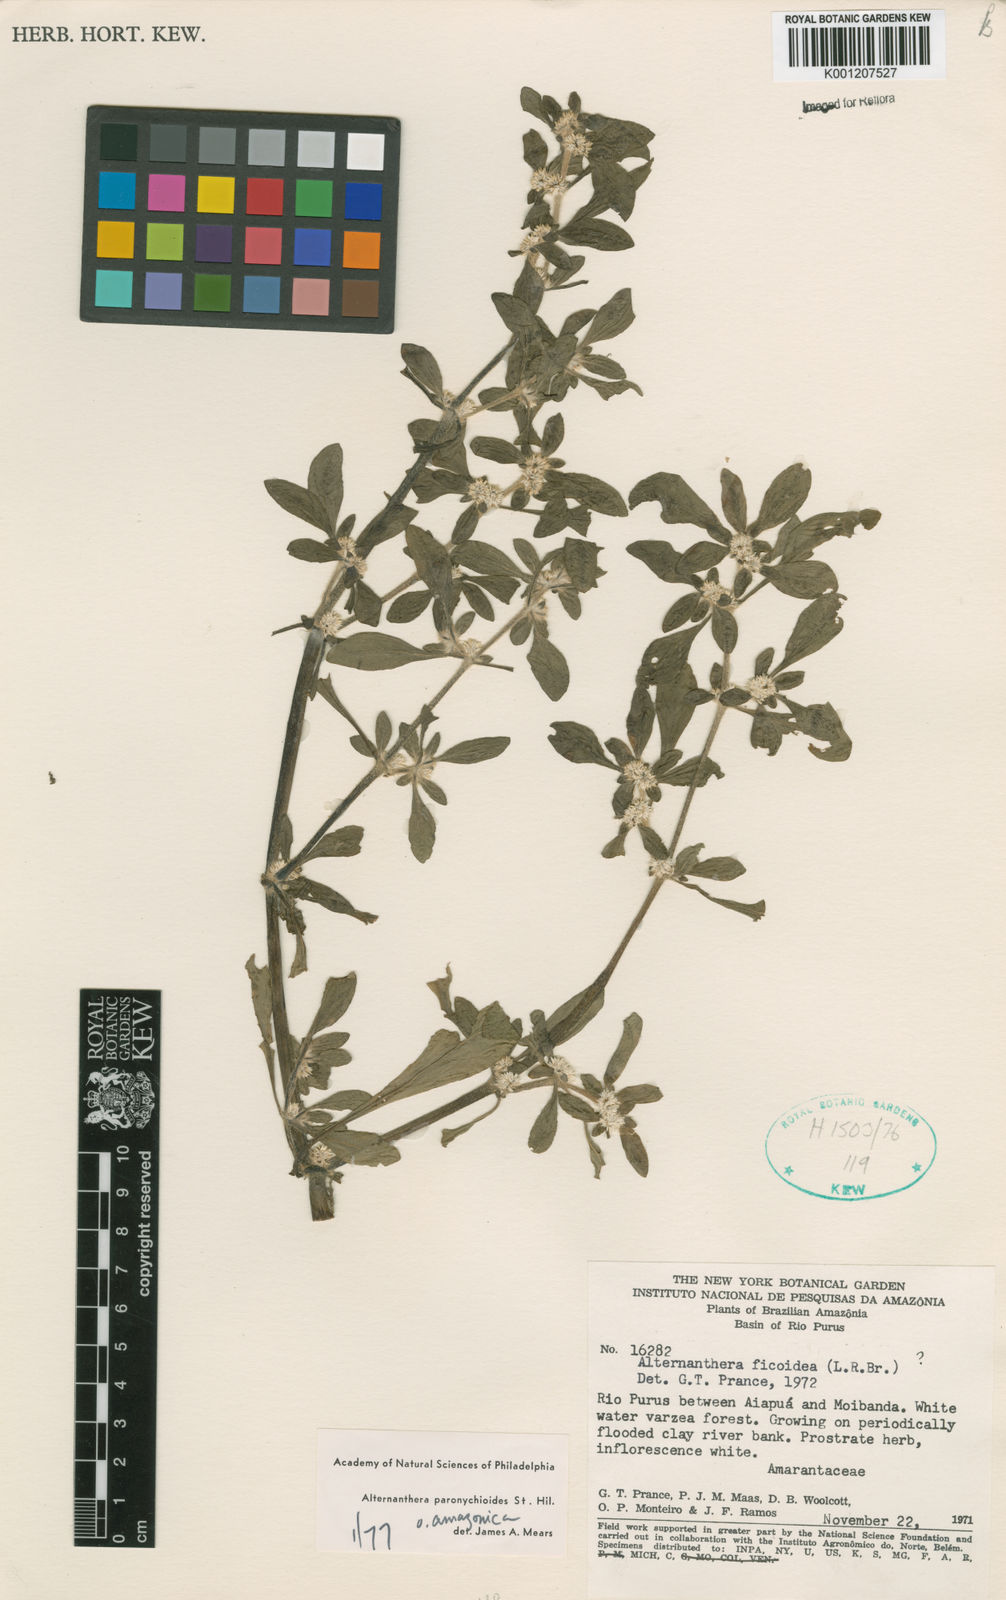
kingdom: Plantae
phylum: Tracheophyta
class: Magnoliopsida
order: Caryophyllales
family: Amaranthaceae
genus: Alternanthera
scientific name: Alternanthera paronychioides
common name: Smooth joyweed
